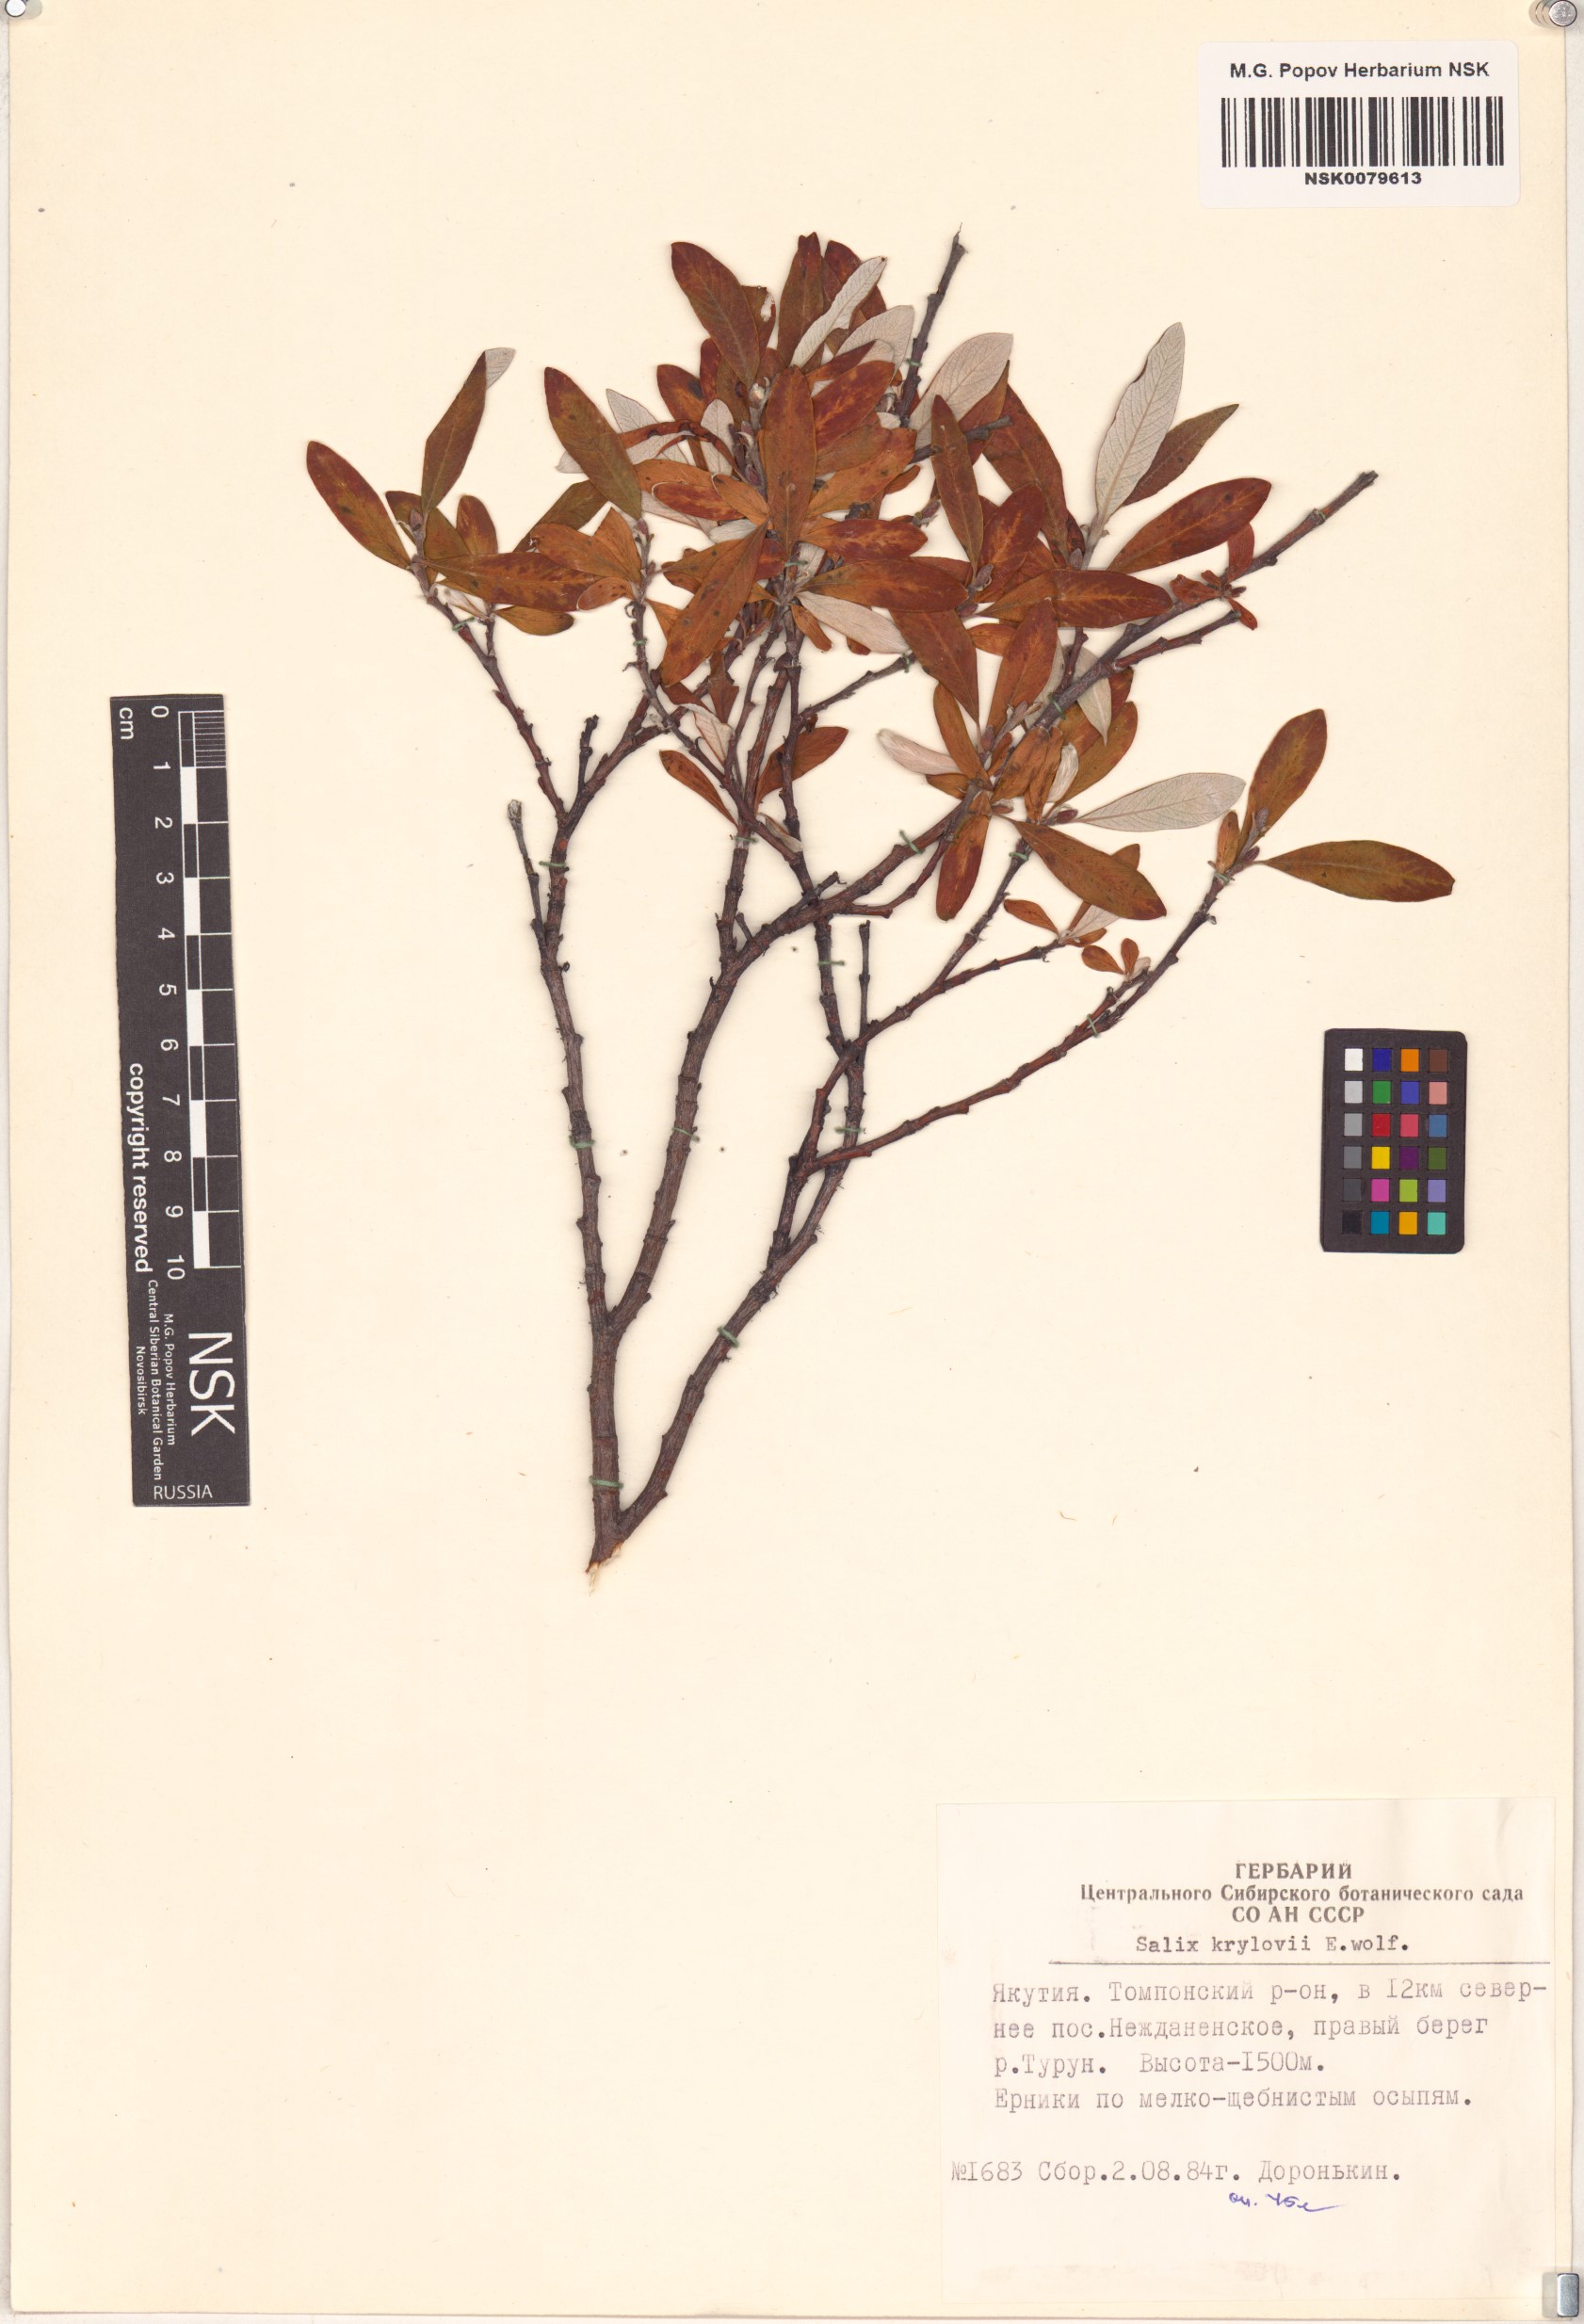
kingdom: Plantae
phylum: Tracheophyta
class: Magnoliopsida
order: Malpighiales
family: Salicaceae
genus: Salix
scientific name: Salix krylovii
